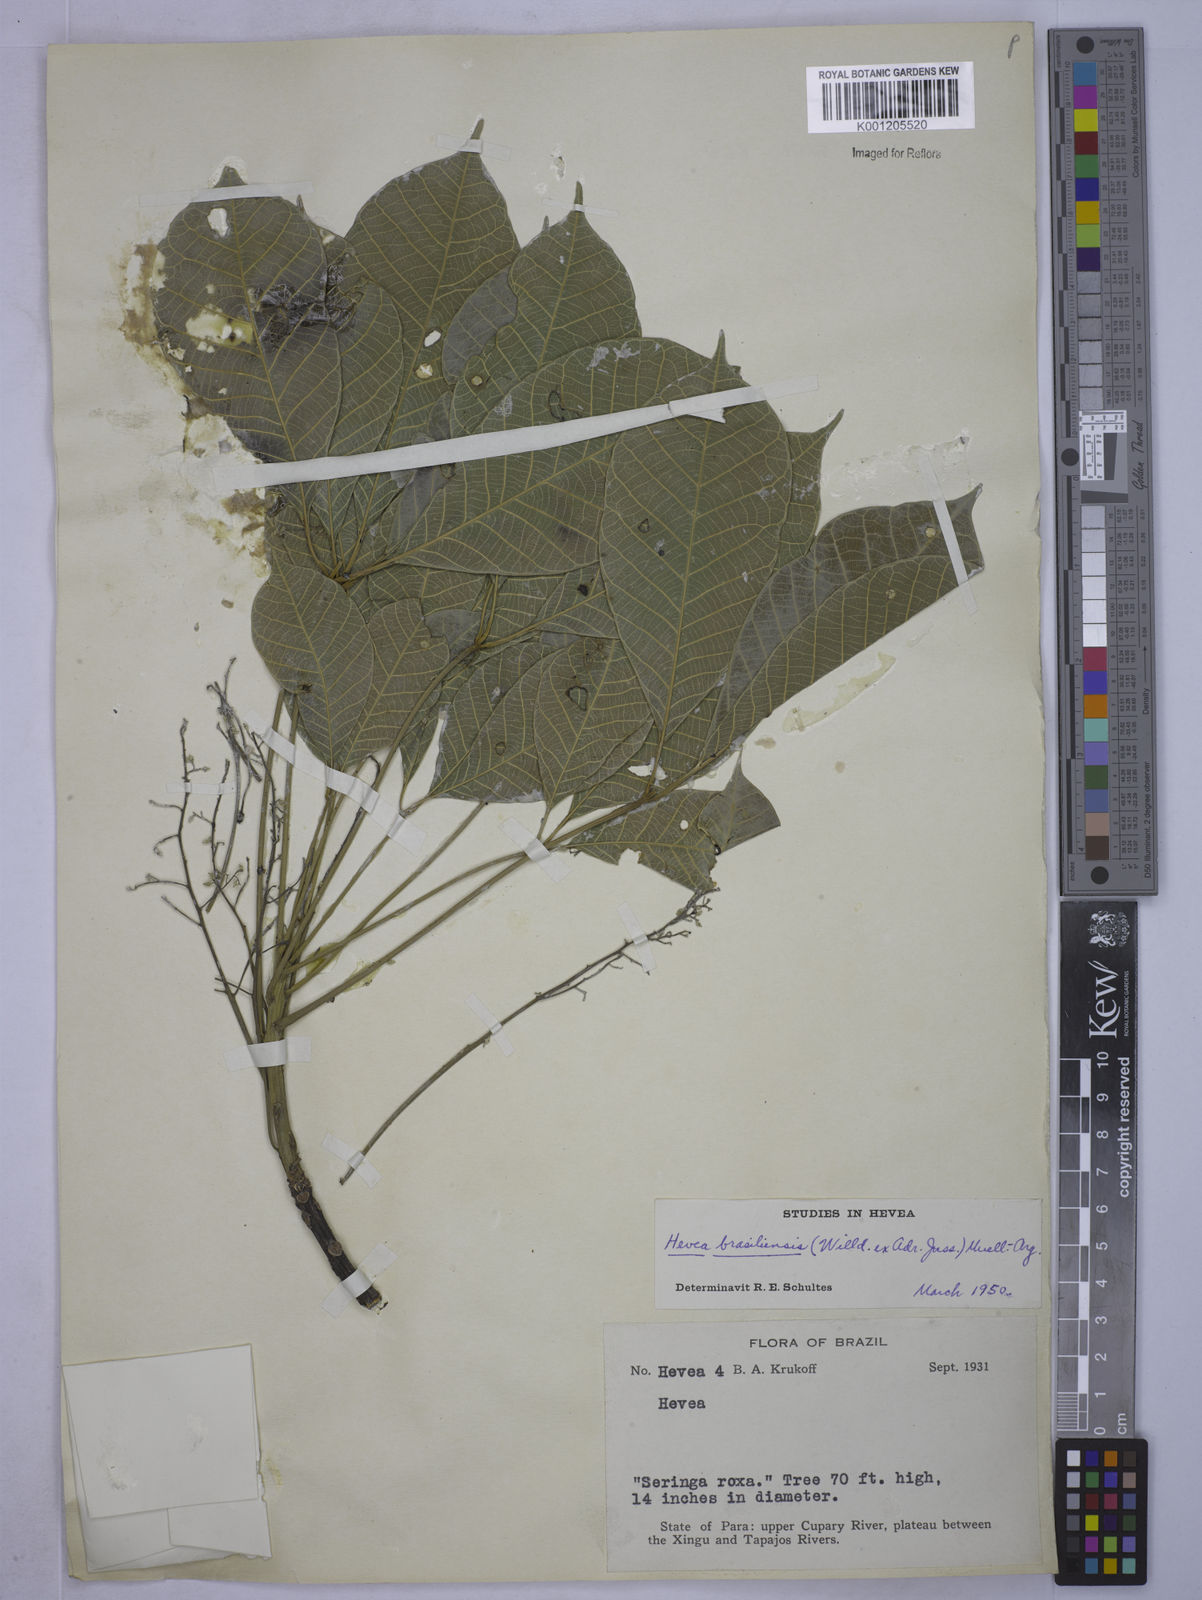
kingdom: Plantae
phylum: Tracheophyta
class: Magnoliopsida
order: Malpighiales
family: Euphorbiaceae
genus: Hevea
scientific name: Hevea
